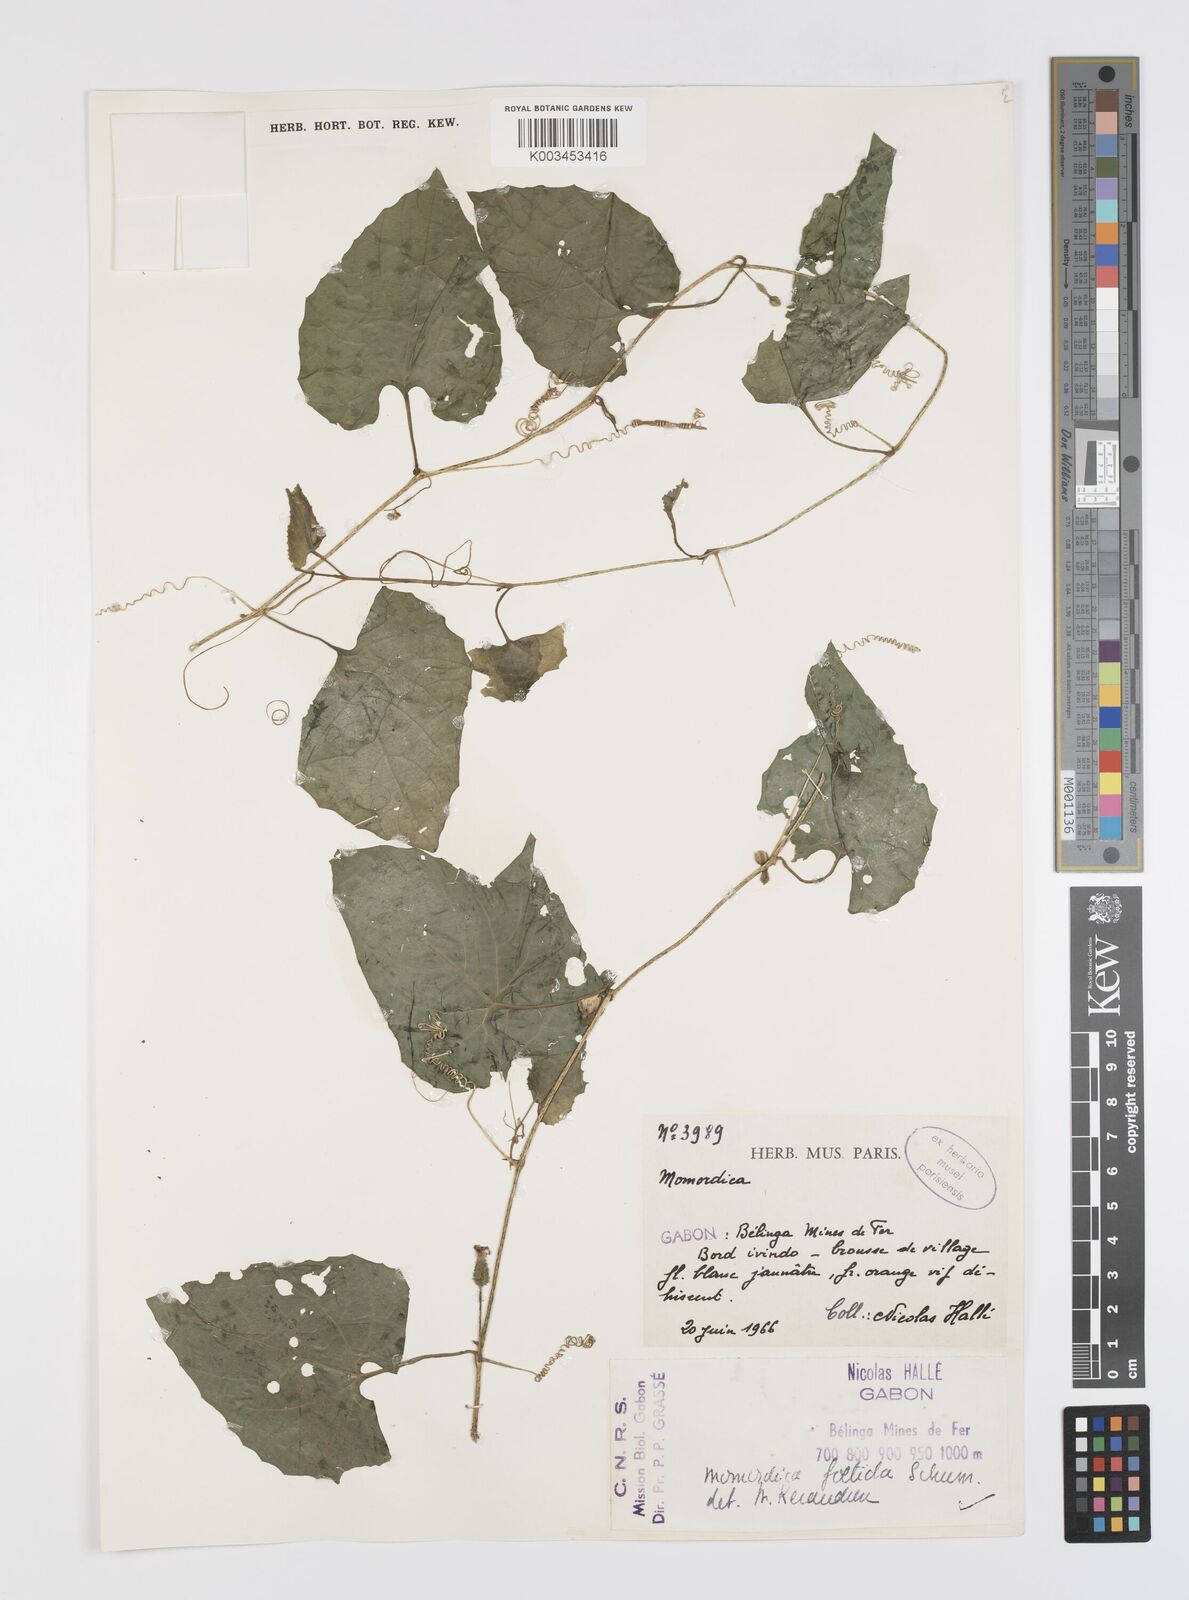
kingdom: Plantae
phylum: Tracheophyta
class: Magnoliopsida
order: Cucurbitales
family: Cucurbitaceae
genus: Momordica
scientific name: Momordica foetida
